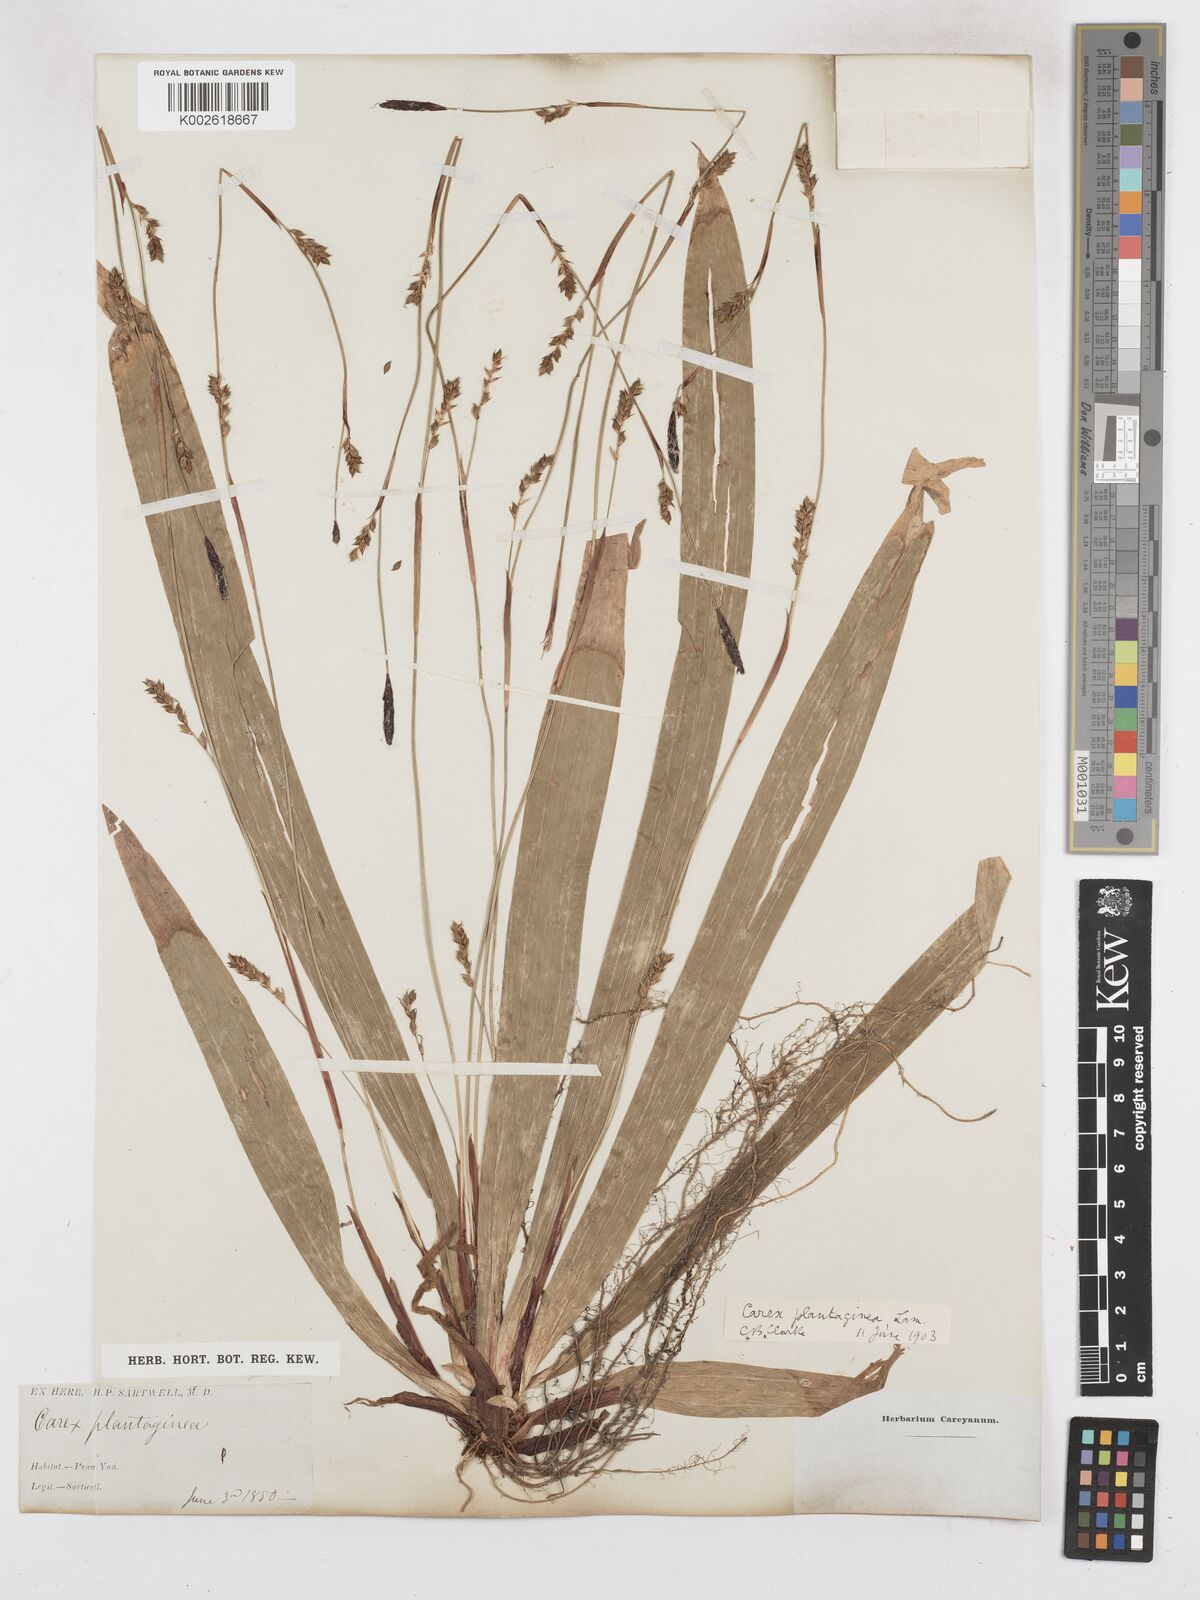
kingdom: Plantae
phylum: Tracheophyta
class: Liliopsida
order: Poales
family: Cyperaceae
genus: Carex
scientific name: Carex plantaginea
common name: Plantain-leaved sedge
